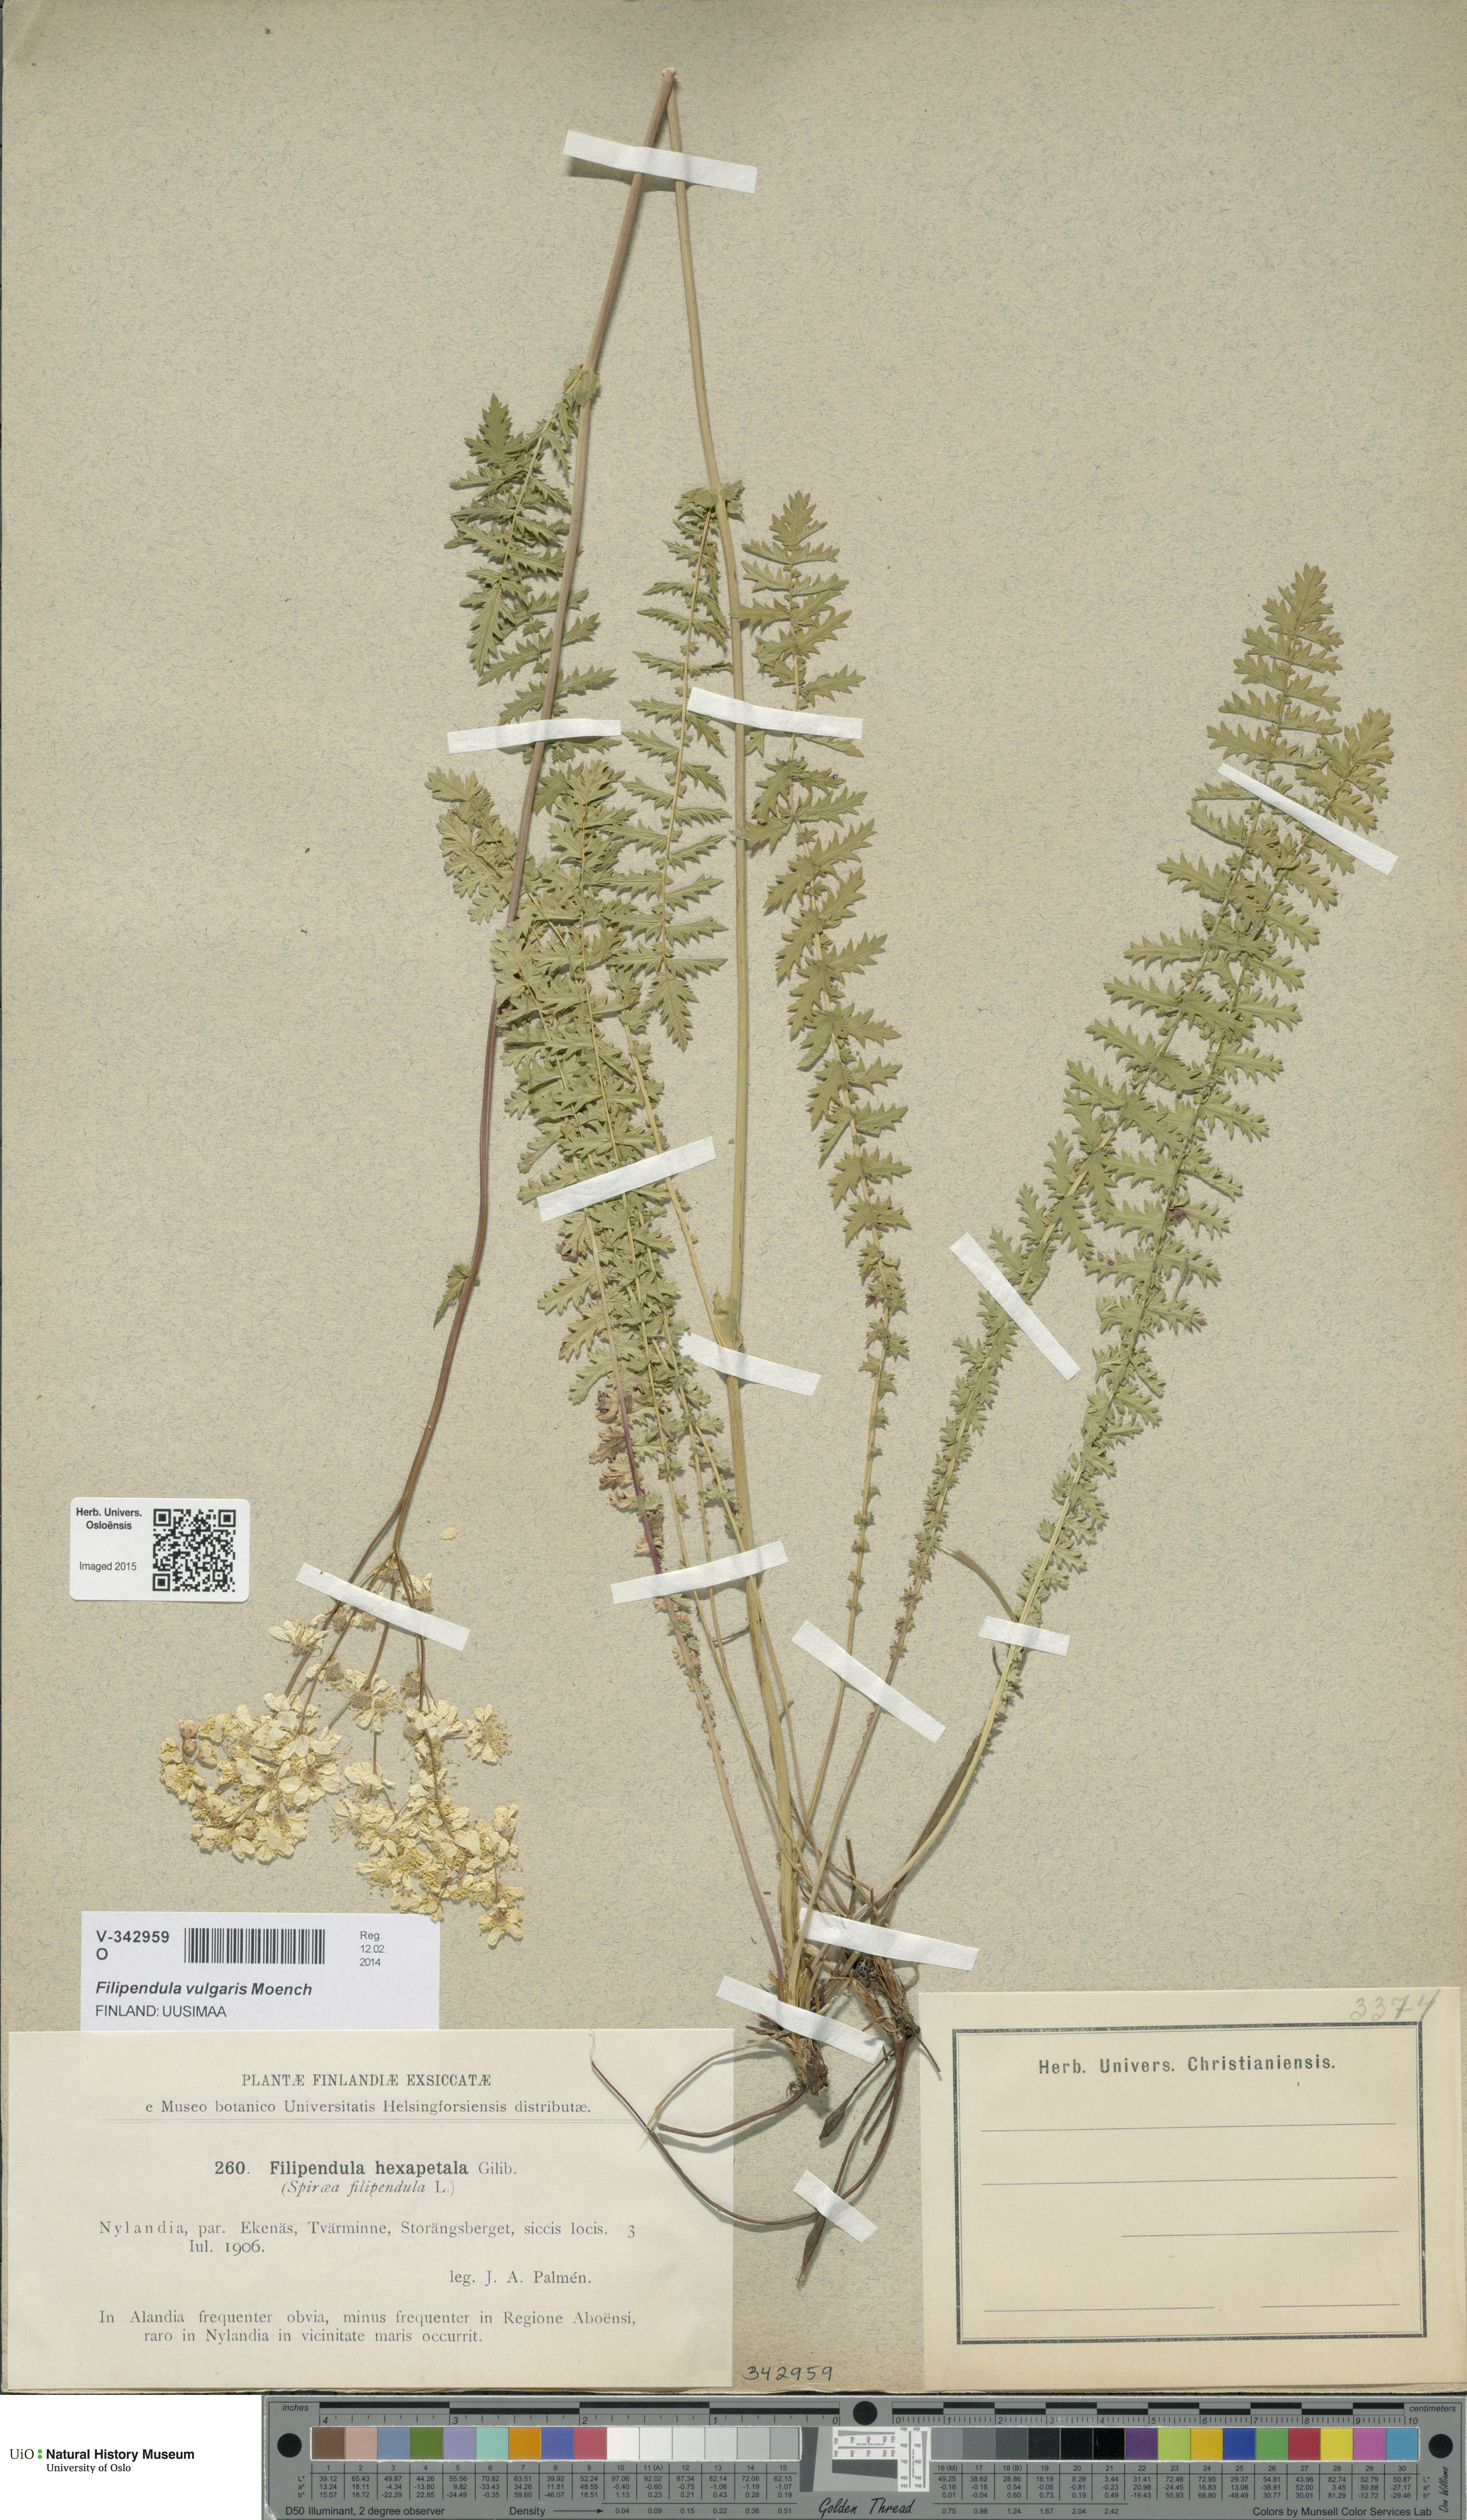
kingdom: Plantae
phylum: Tracheophyta
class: Magnoliopsida
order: Rosales
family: Rosaceae
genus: Filipendula
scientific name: Filipendula vulgaris
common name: Dropwort
